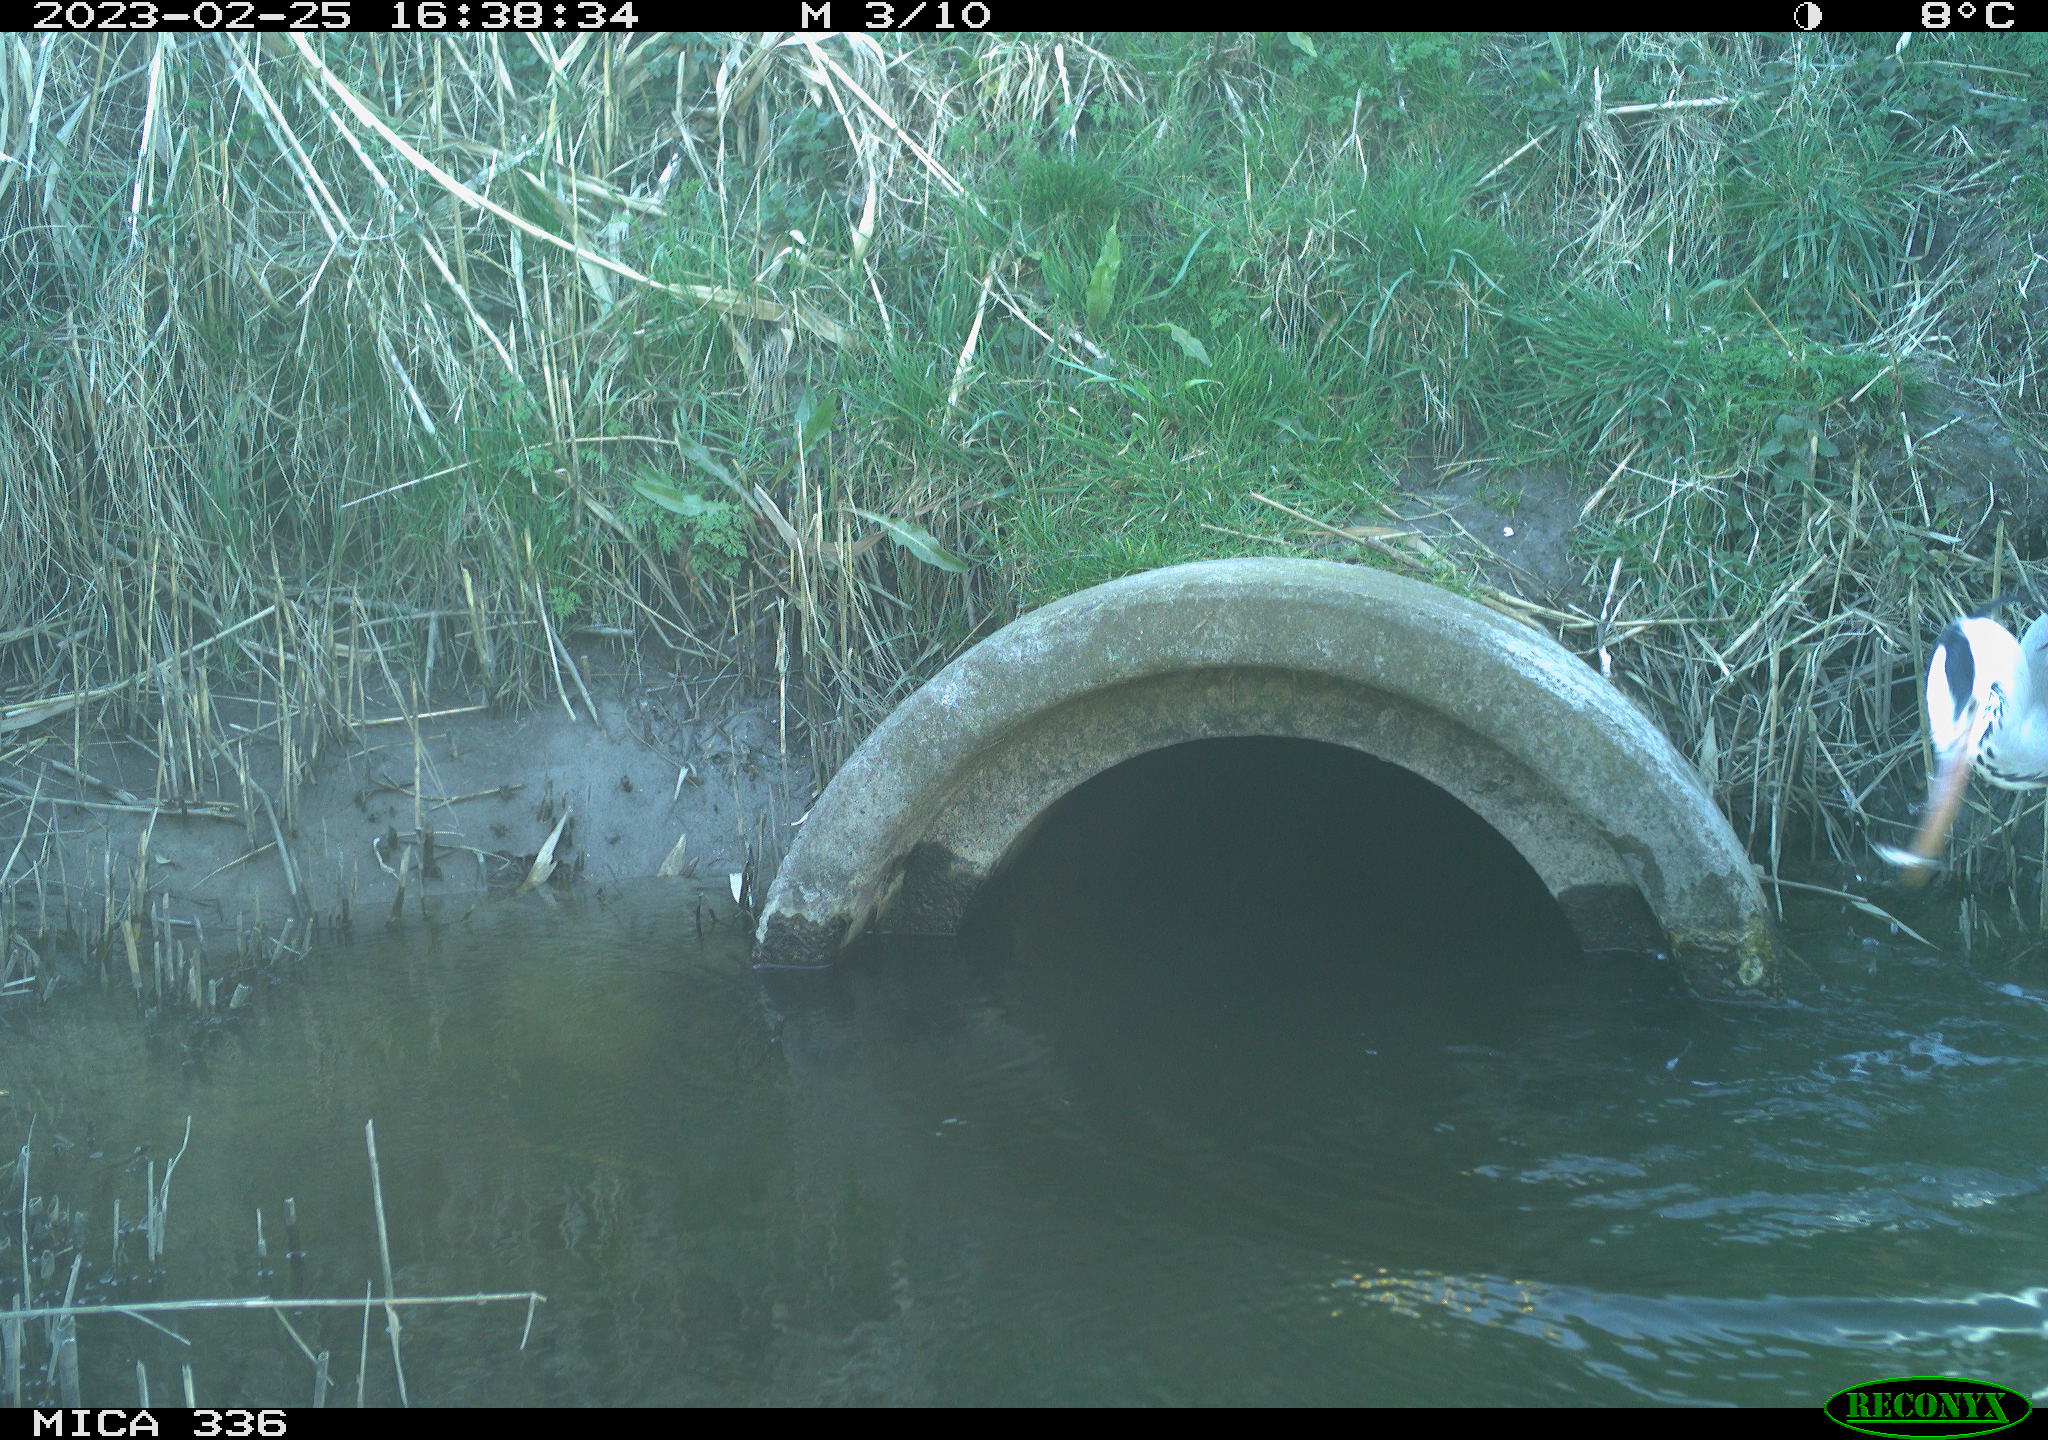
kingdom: Animalia
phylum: Chordata
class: Aves
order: Pelecaniformes
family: Ardeidae
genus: Ardea
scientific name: Ardea cinerea
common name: Grey heron
